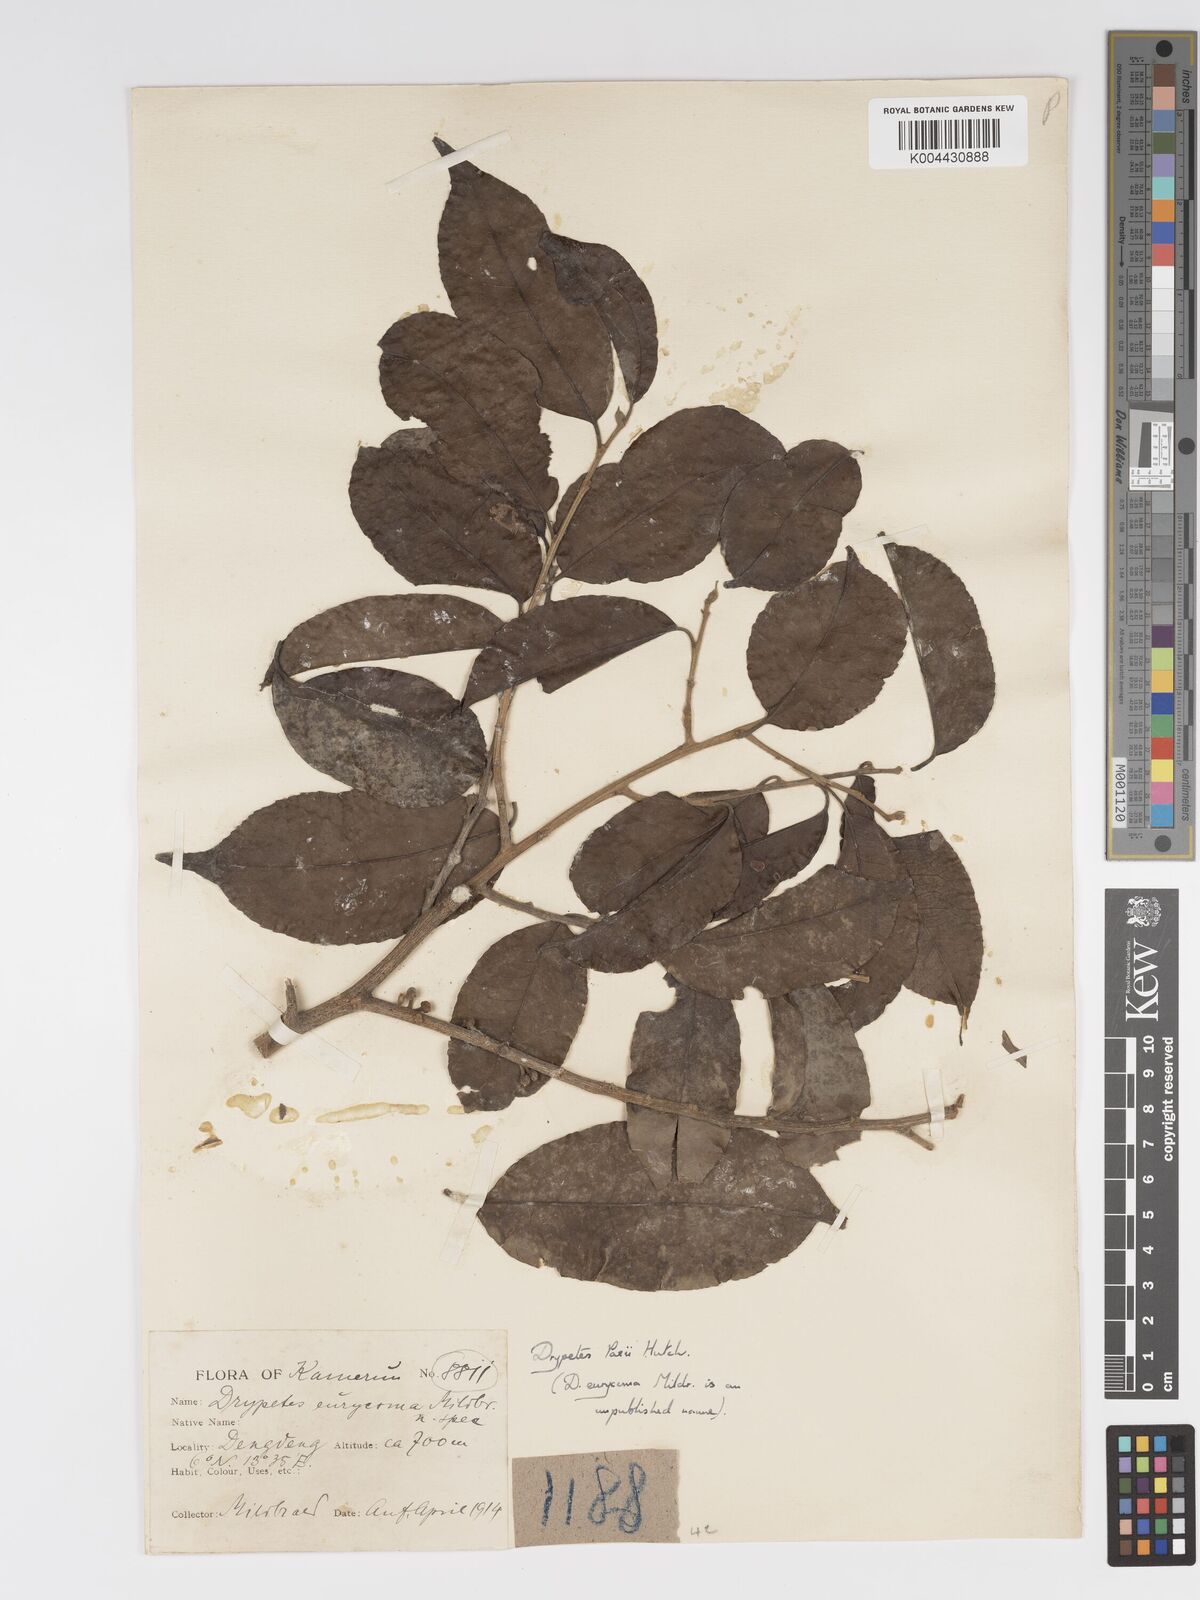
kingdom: Plantae
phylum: Tracheophyta
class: Magnoliopsida
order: Malpighiales
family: Putranjivaceae
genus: Drypetes
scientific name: Drypetes paxii
